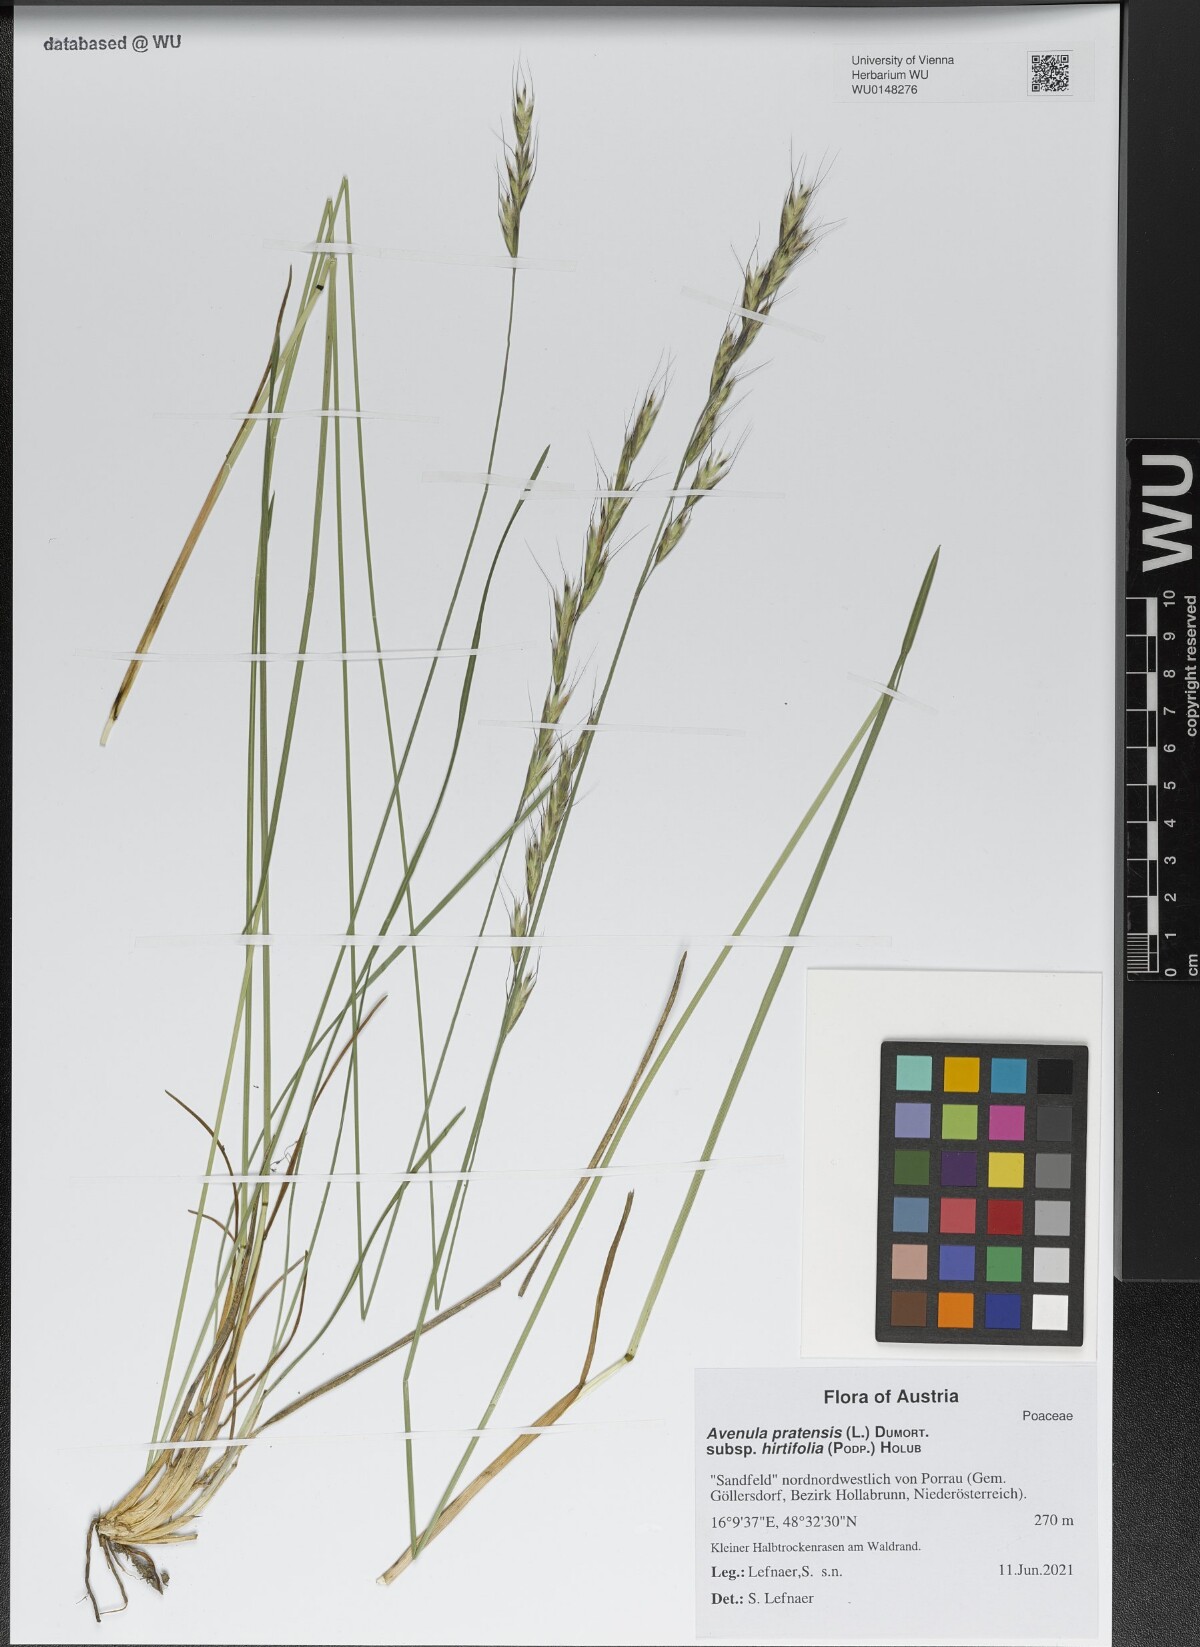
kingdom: Plantae
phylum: Tracheophyta
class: Liliopsida
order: Poales
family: Poaceae
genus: Helictochloa
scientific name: Helictochloa pratensis
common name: Meadow oat grass
